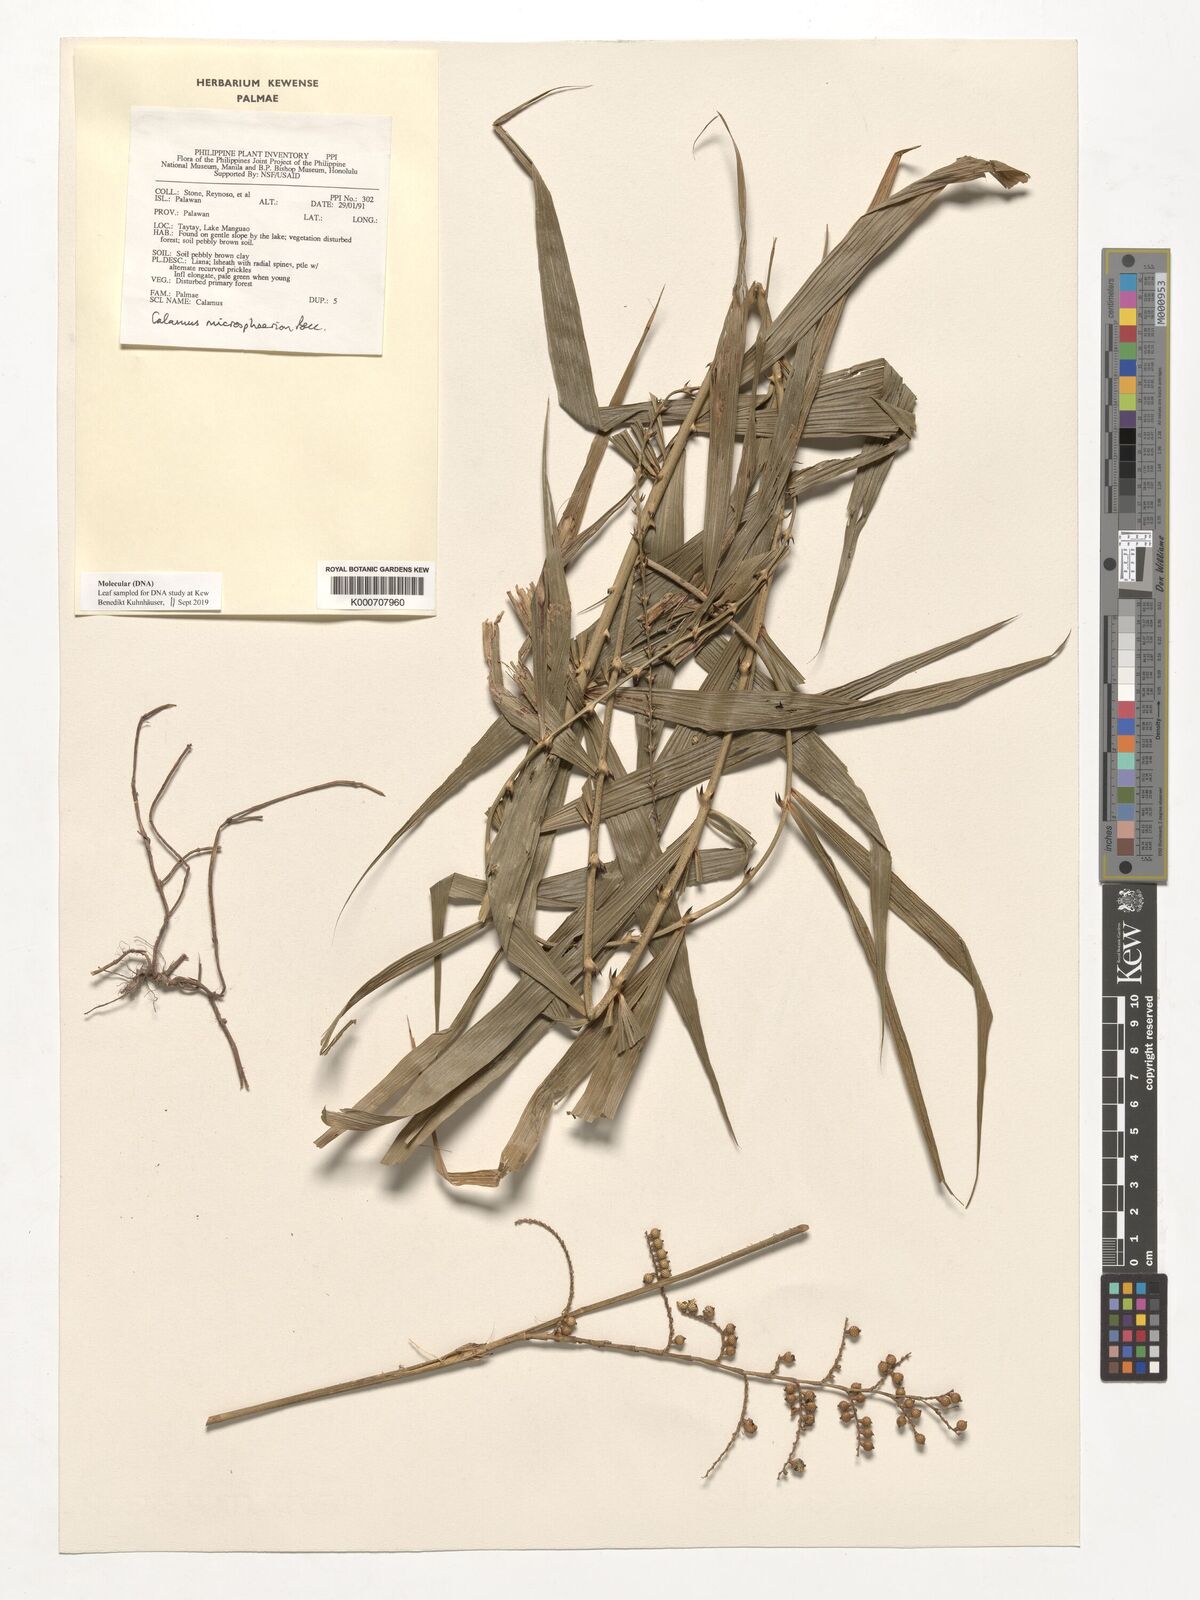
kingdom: Plantae
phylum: Tracheophyta
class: Liliopsida
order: Arecales
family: Arecaceae
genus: Calamus
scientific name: Calamus microsphaerion
